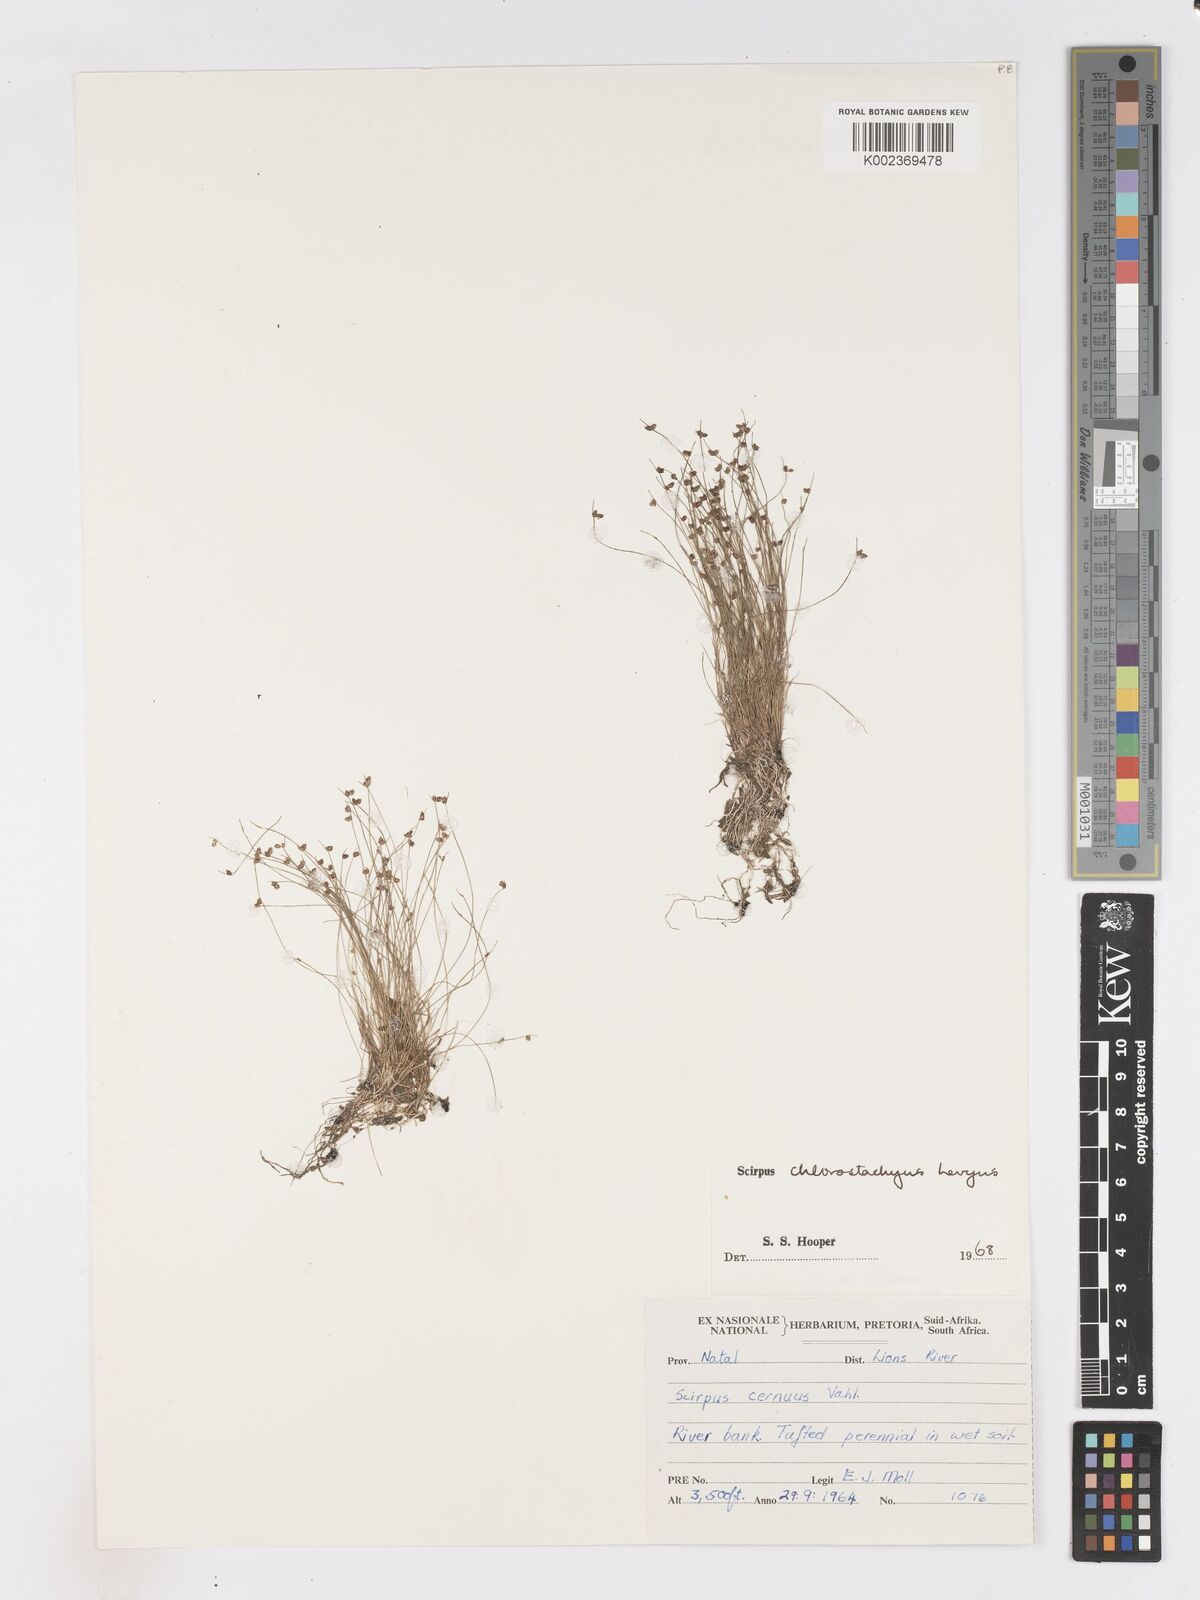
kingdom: Plantae
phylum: Tracheophyta
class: Liliopsida
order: Poales
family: Cyperaceae
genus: Isolepis
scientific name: Isolepis sepulcralis
